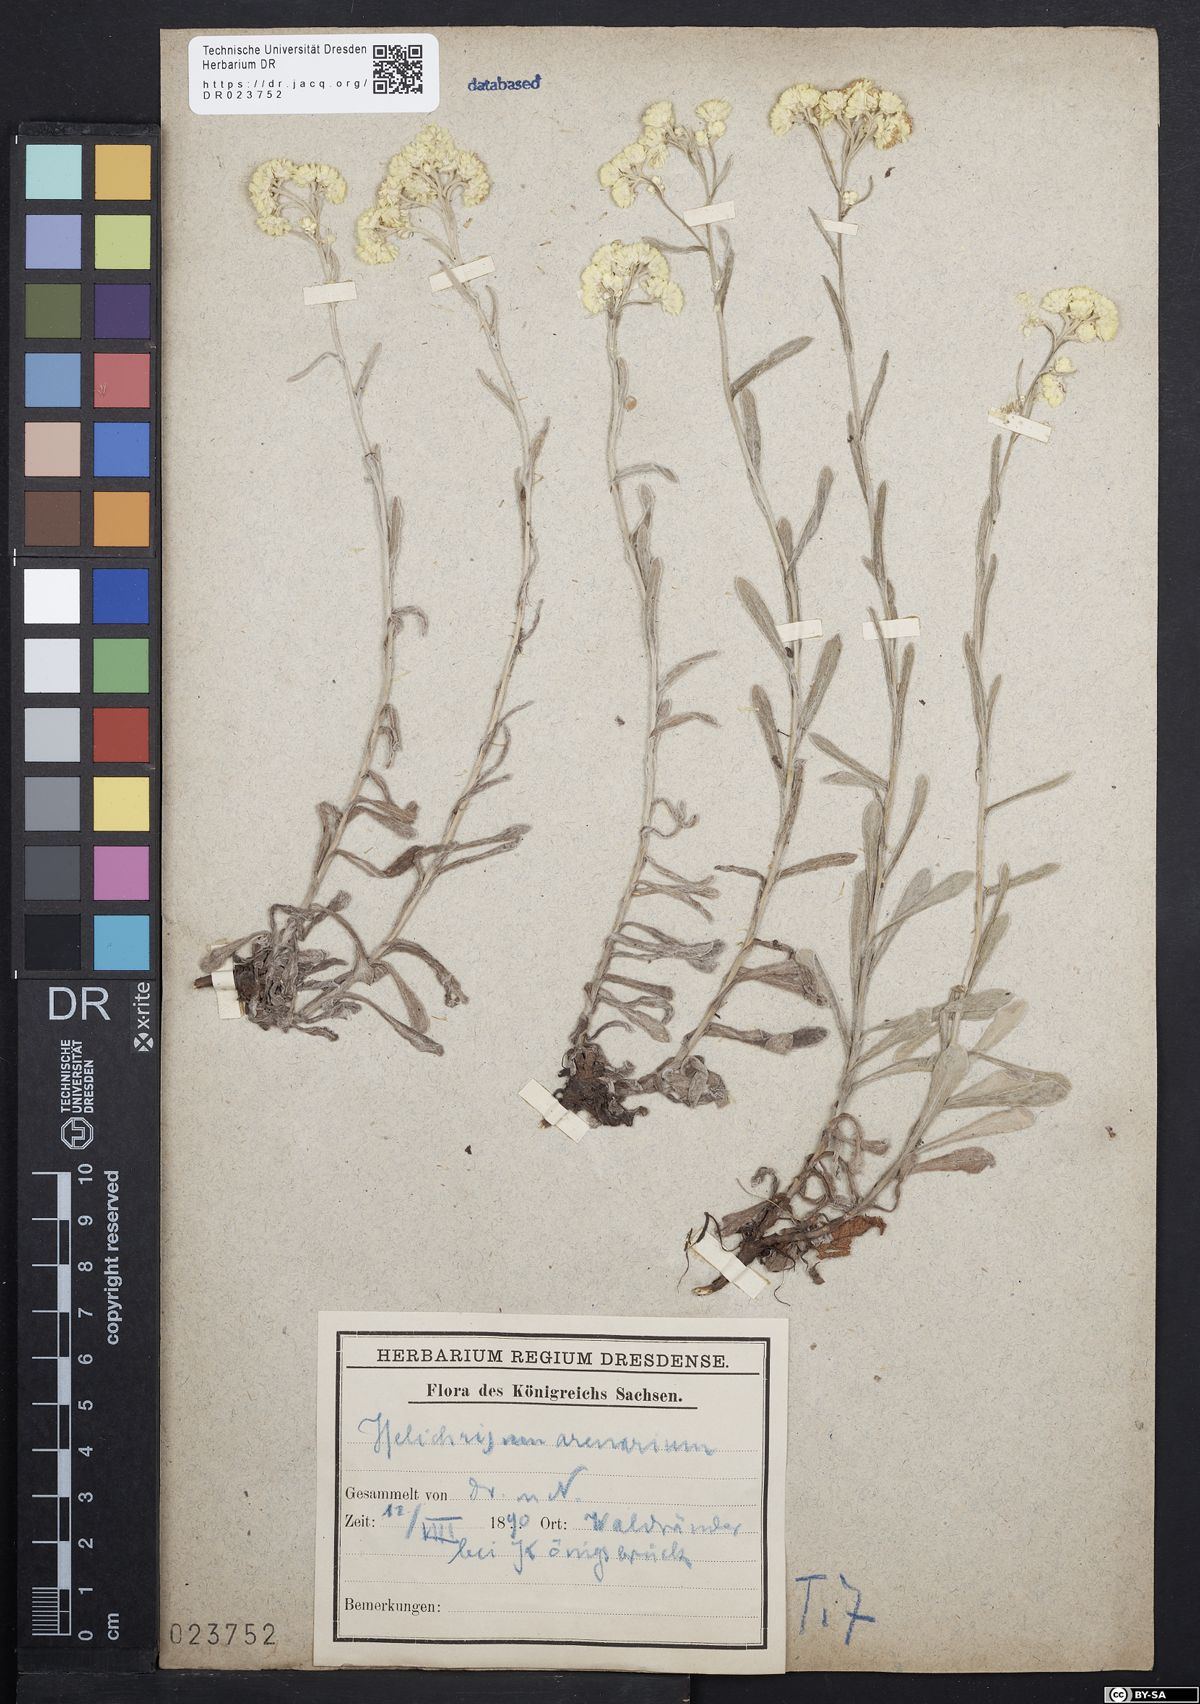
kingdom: Plantae
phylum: Tracheophyta
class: Magnoliopsida
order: Asterales
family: Asteraceae
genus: Helichrysum
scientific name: Helichrysum arenarium
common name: Strawflower
